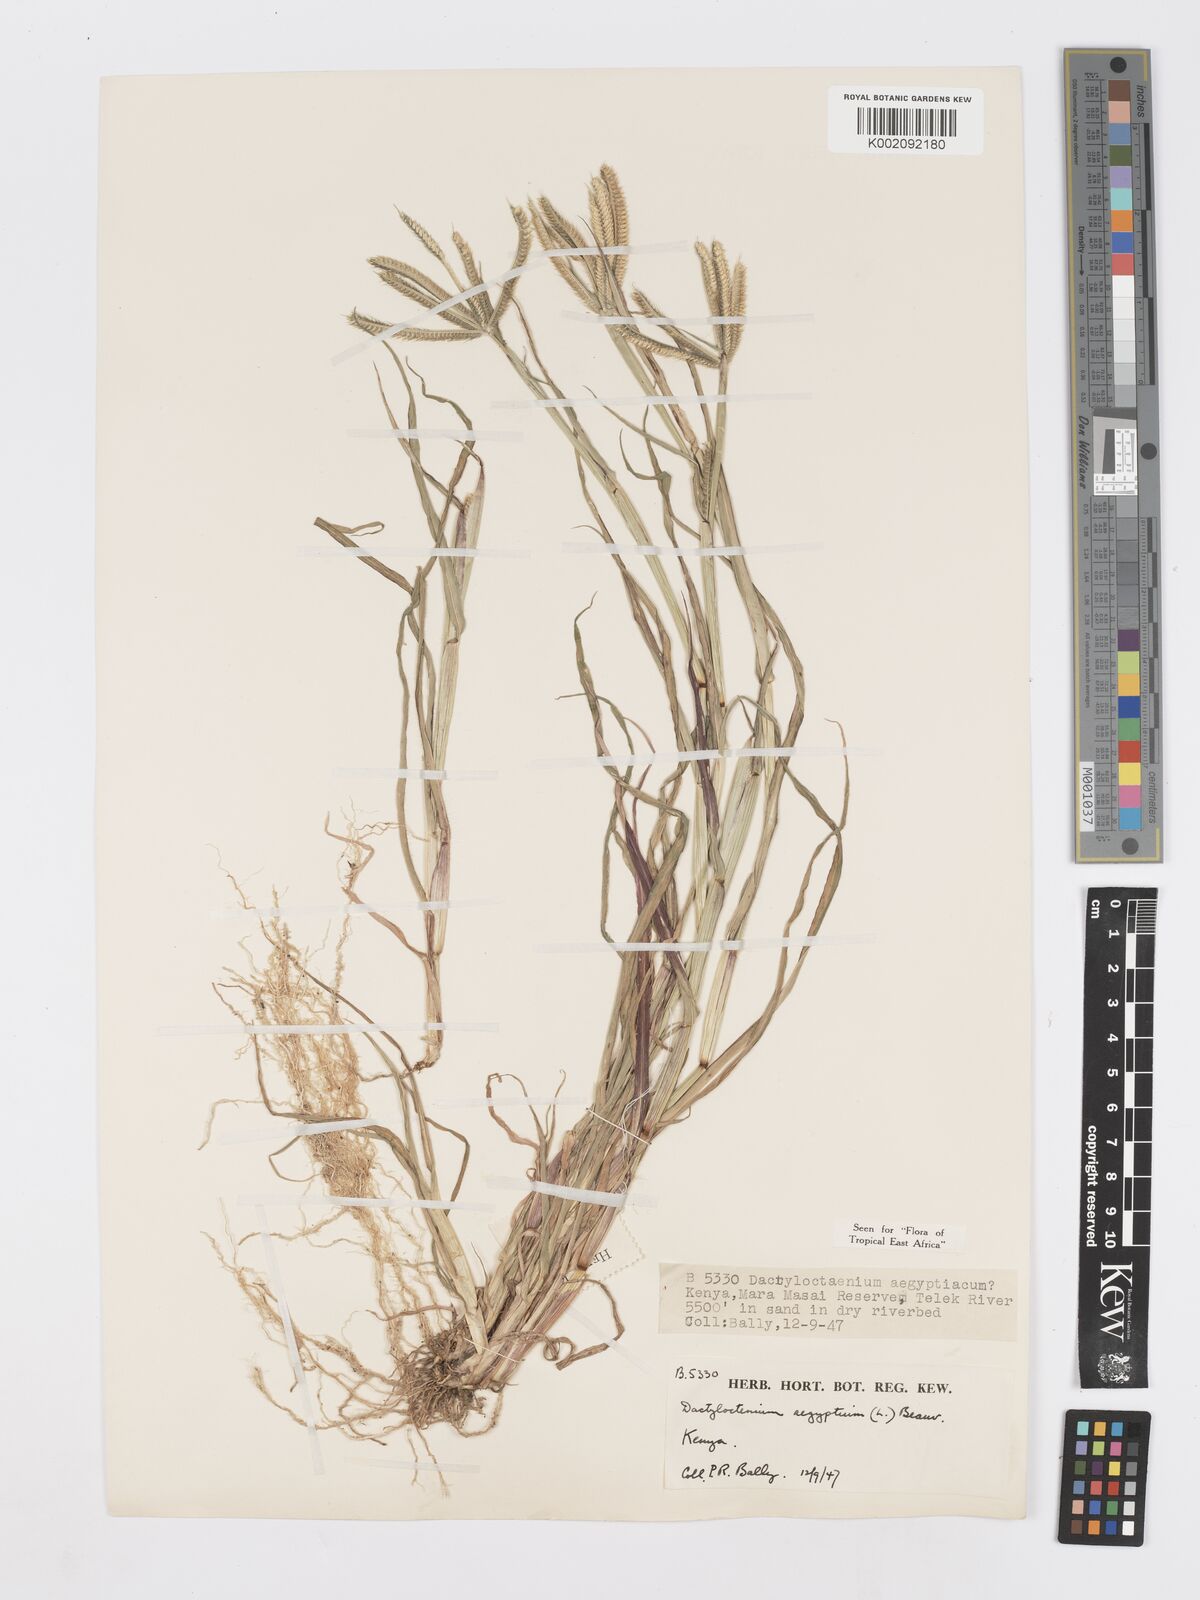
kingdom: Plantae
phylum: Tracheophyta
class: Liliopsida
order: Poales
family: Poaceae
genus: Dactyloctenium
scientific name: Dactyloctenium aegyptium
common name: Egyptian grass
